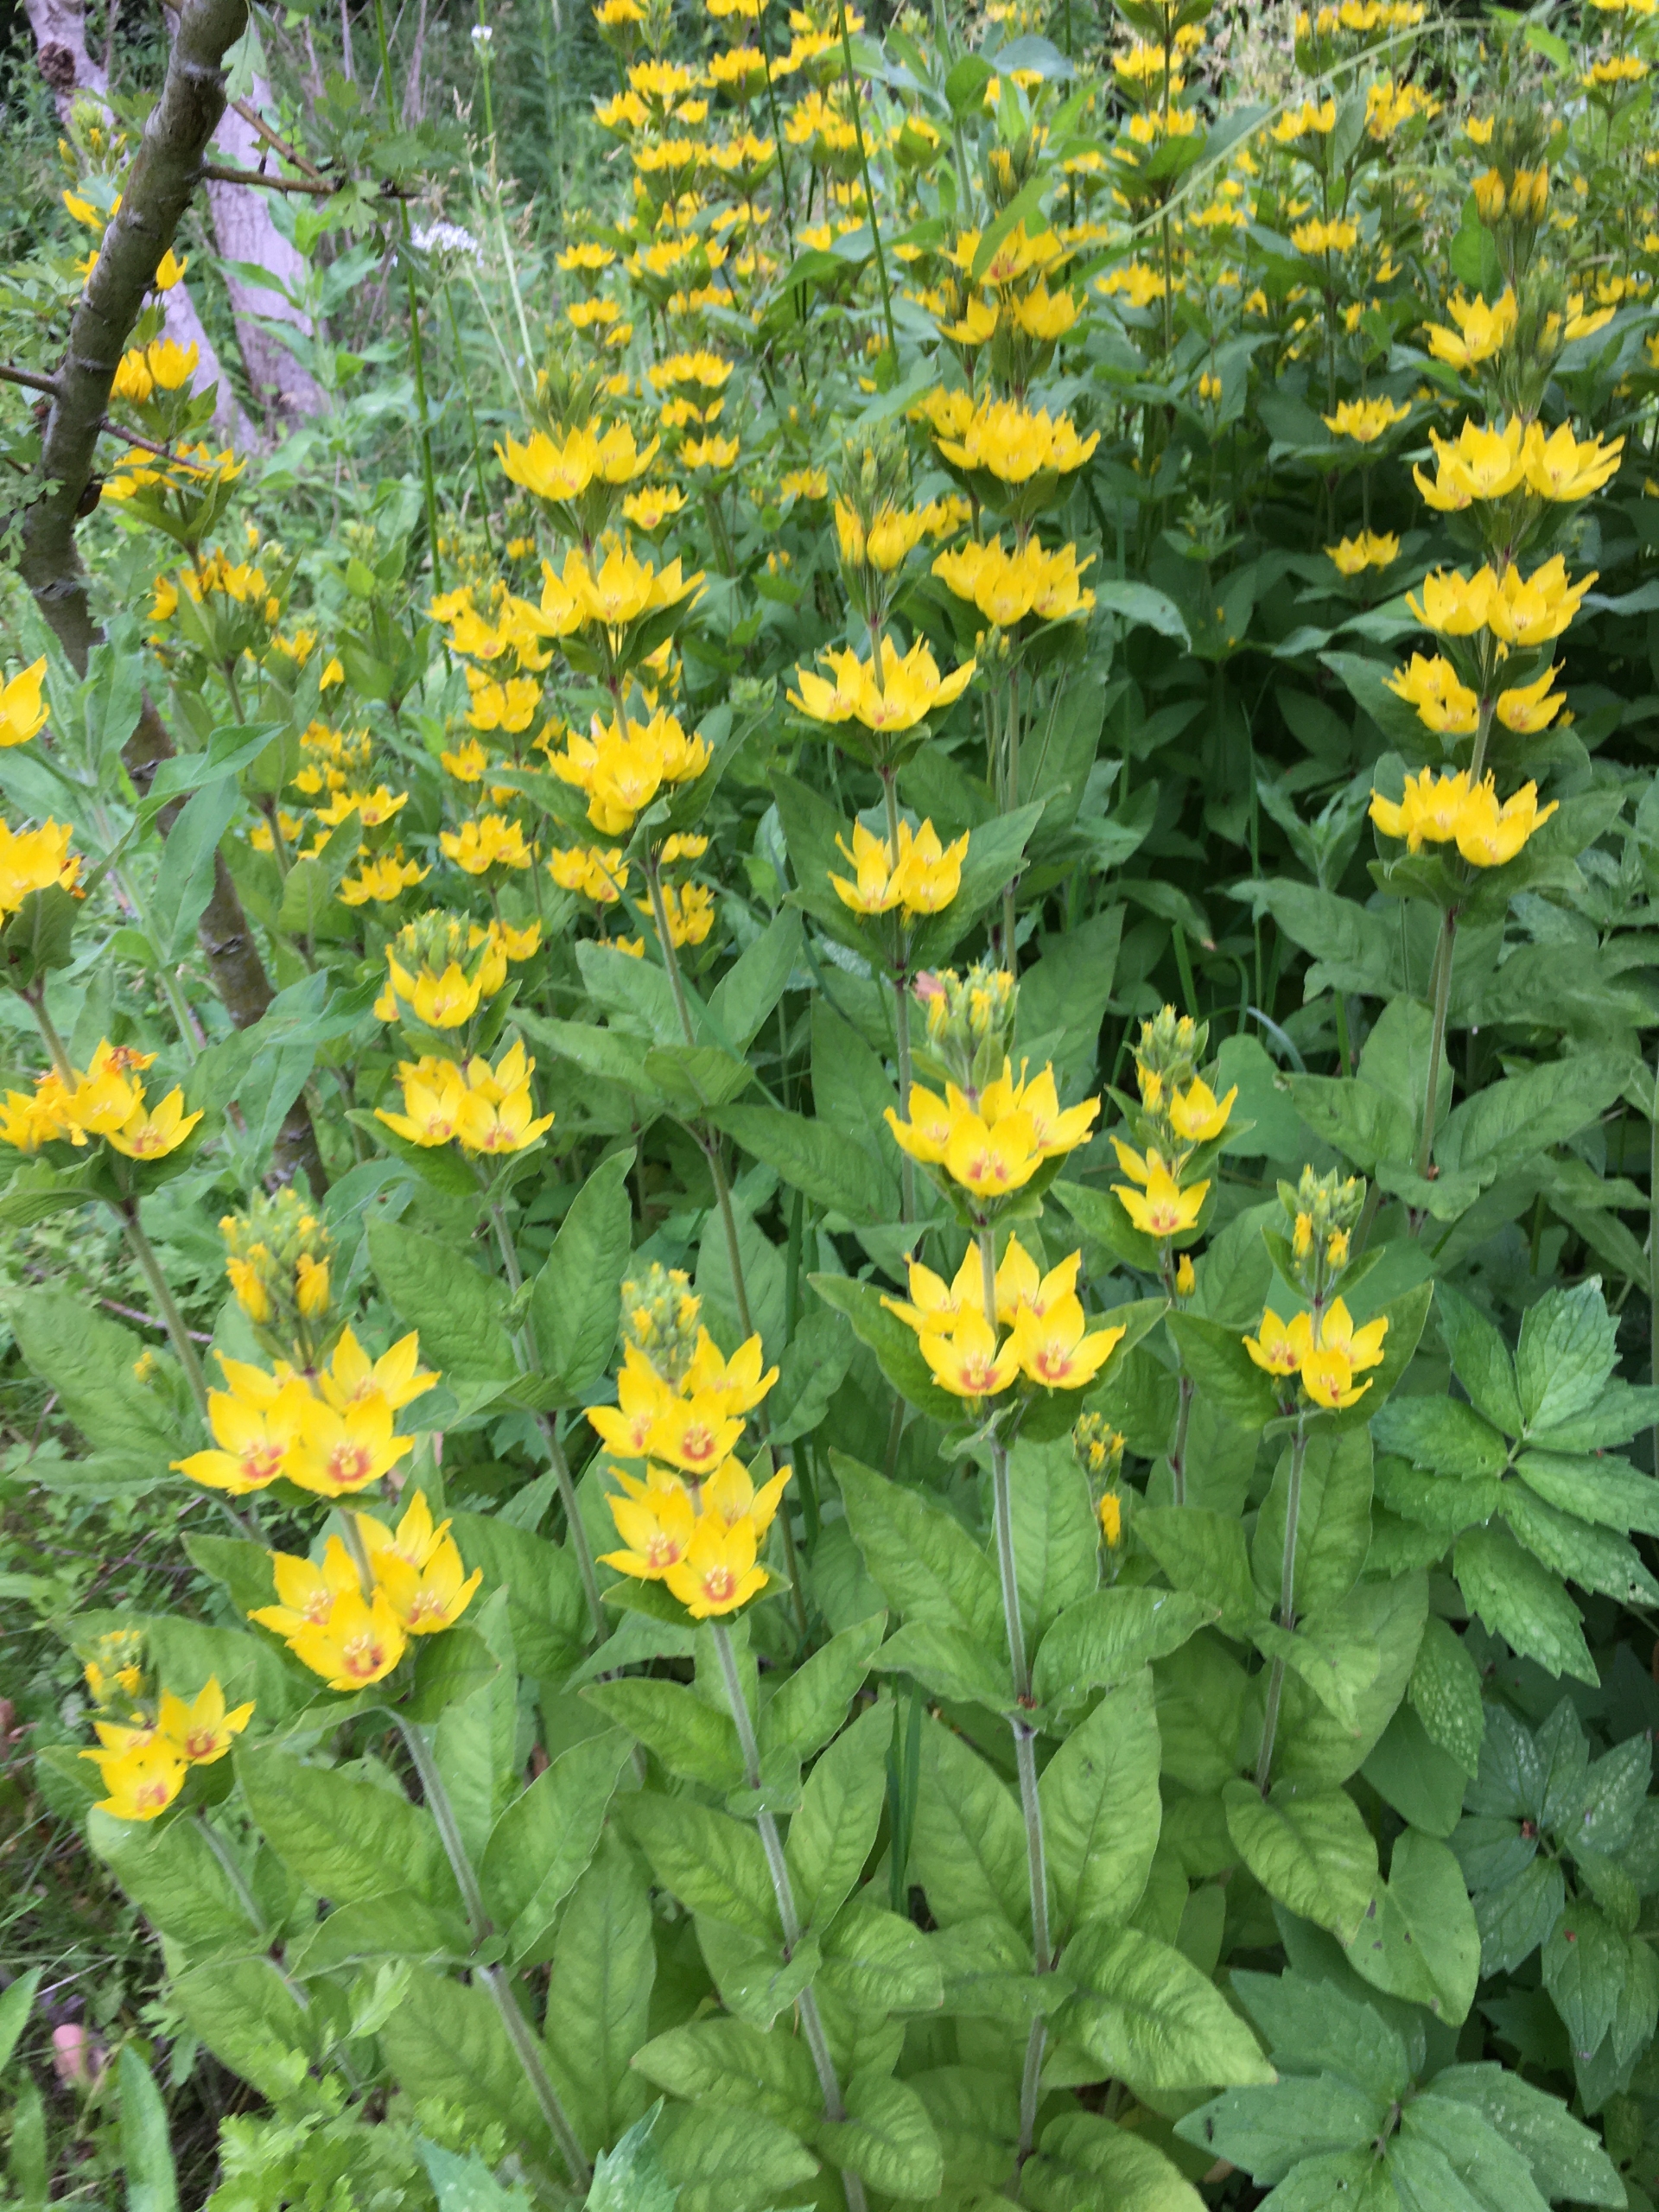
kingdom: Plantae
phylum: Tracheophyta
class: Magnoliopsida
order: Ericales
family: Primulaceae
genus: Lysimachia
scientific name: Lysimachia punctata
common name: Prikbladet fredløs
